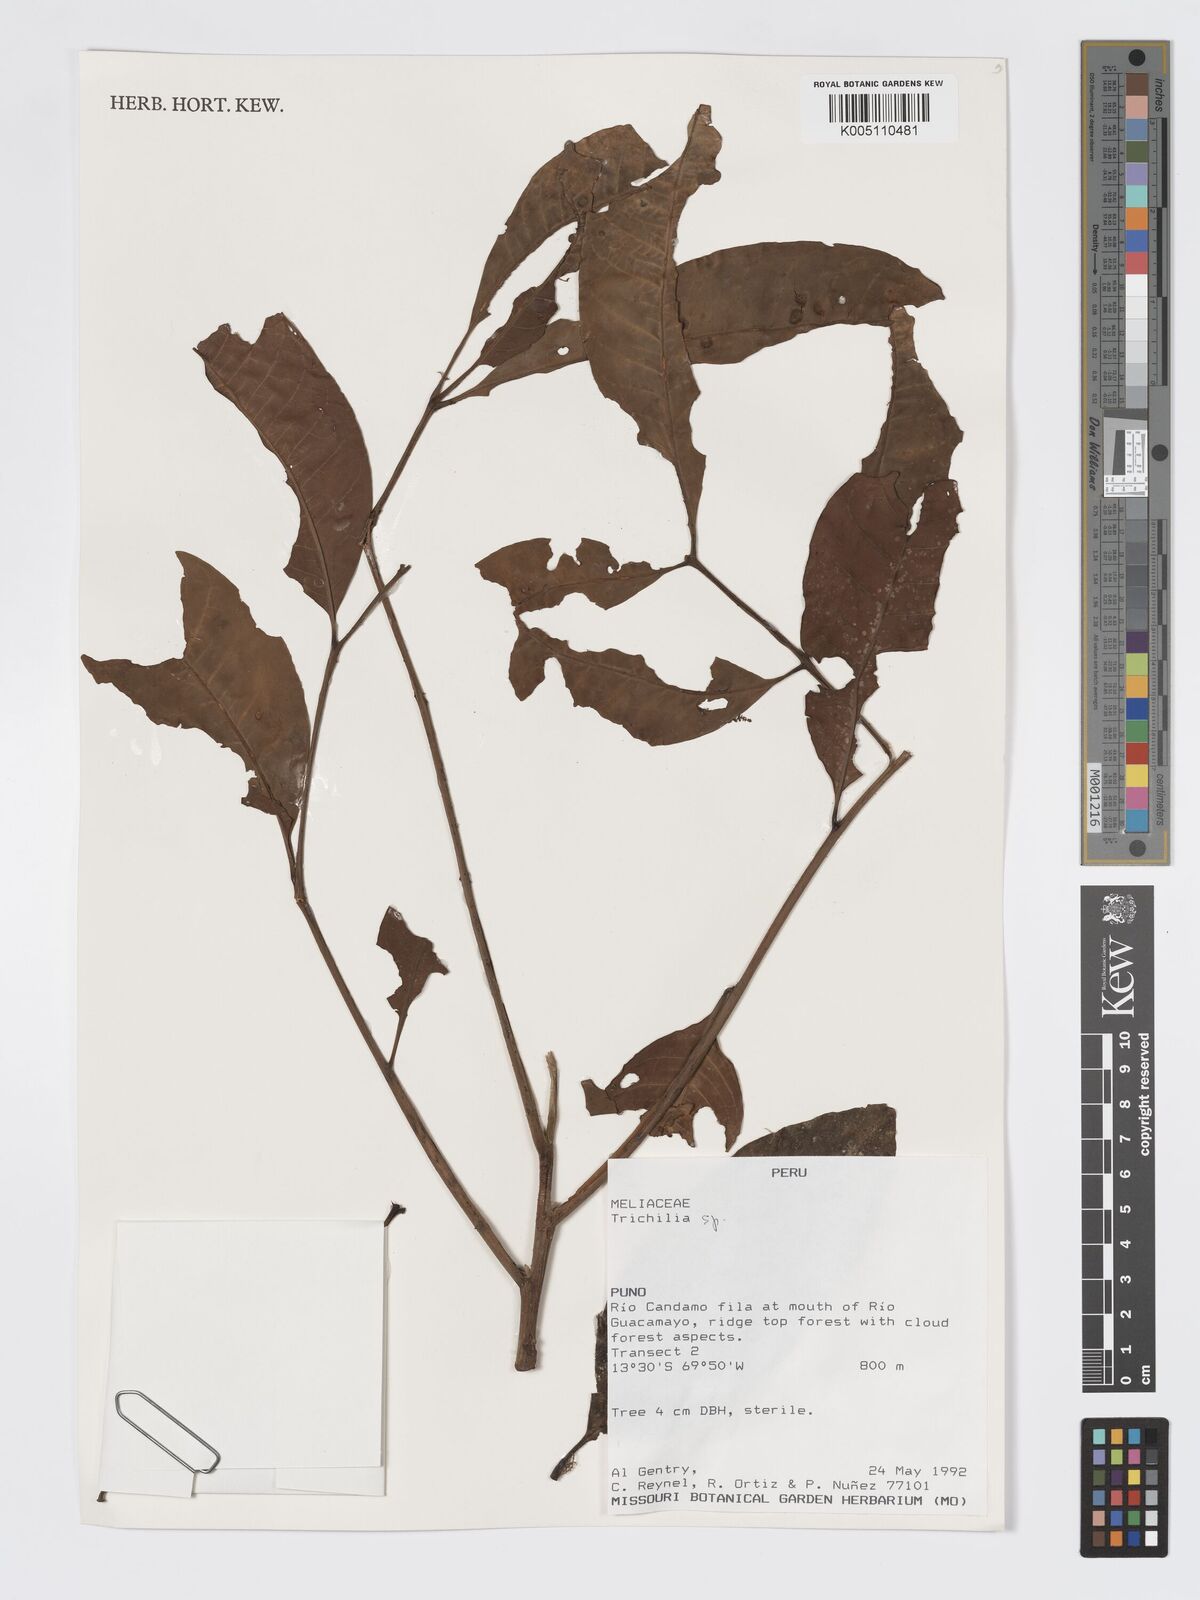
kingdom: Plantae
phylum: Tracheophyta
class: Magnoliopsida
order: Sapindales
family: Meliaceae
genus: Trichilia
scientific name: Trichilia
